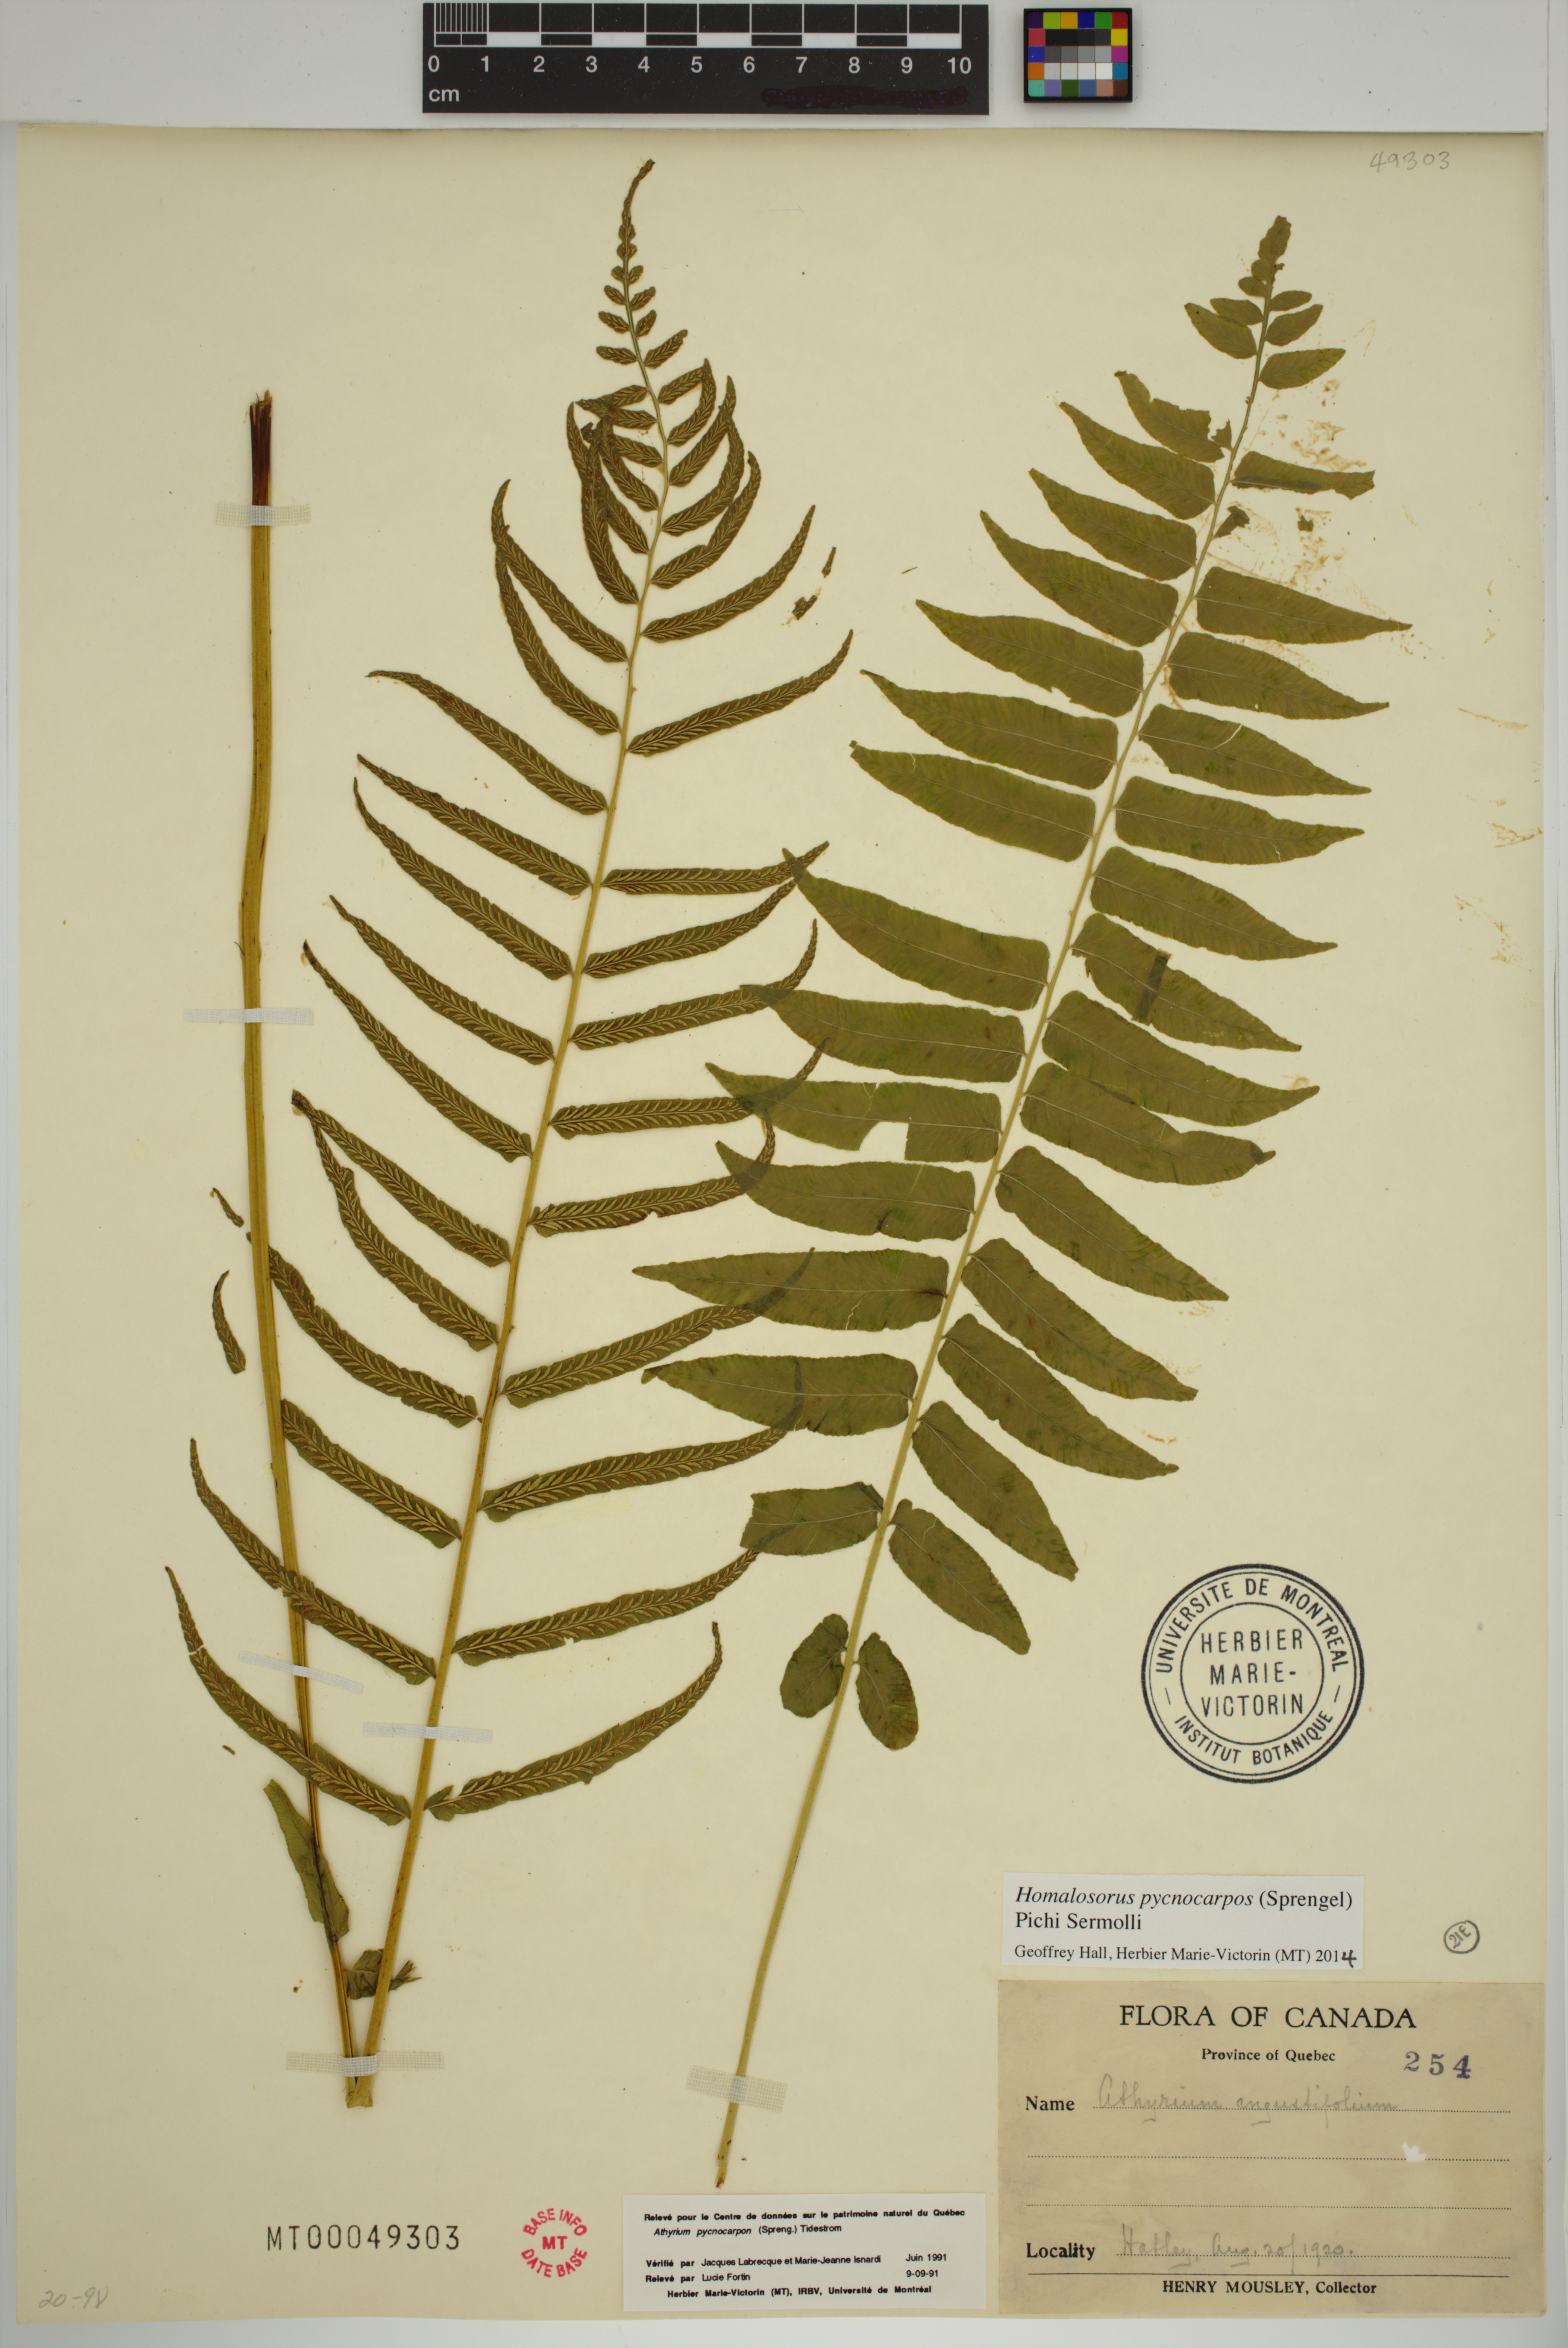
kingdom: Plantae
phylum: Tracheophyta
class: Polypodiopsida
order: Polypodiales
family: Diplaziopsidaceae
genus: Homalosorus
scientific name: Homalosorus pycnocarpos
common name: Glade fern
